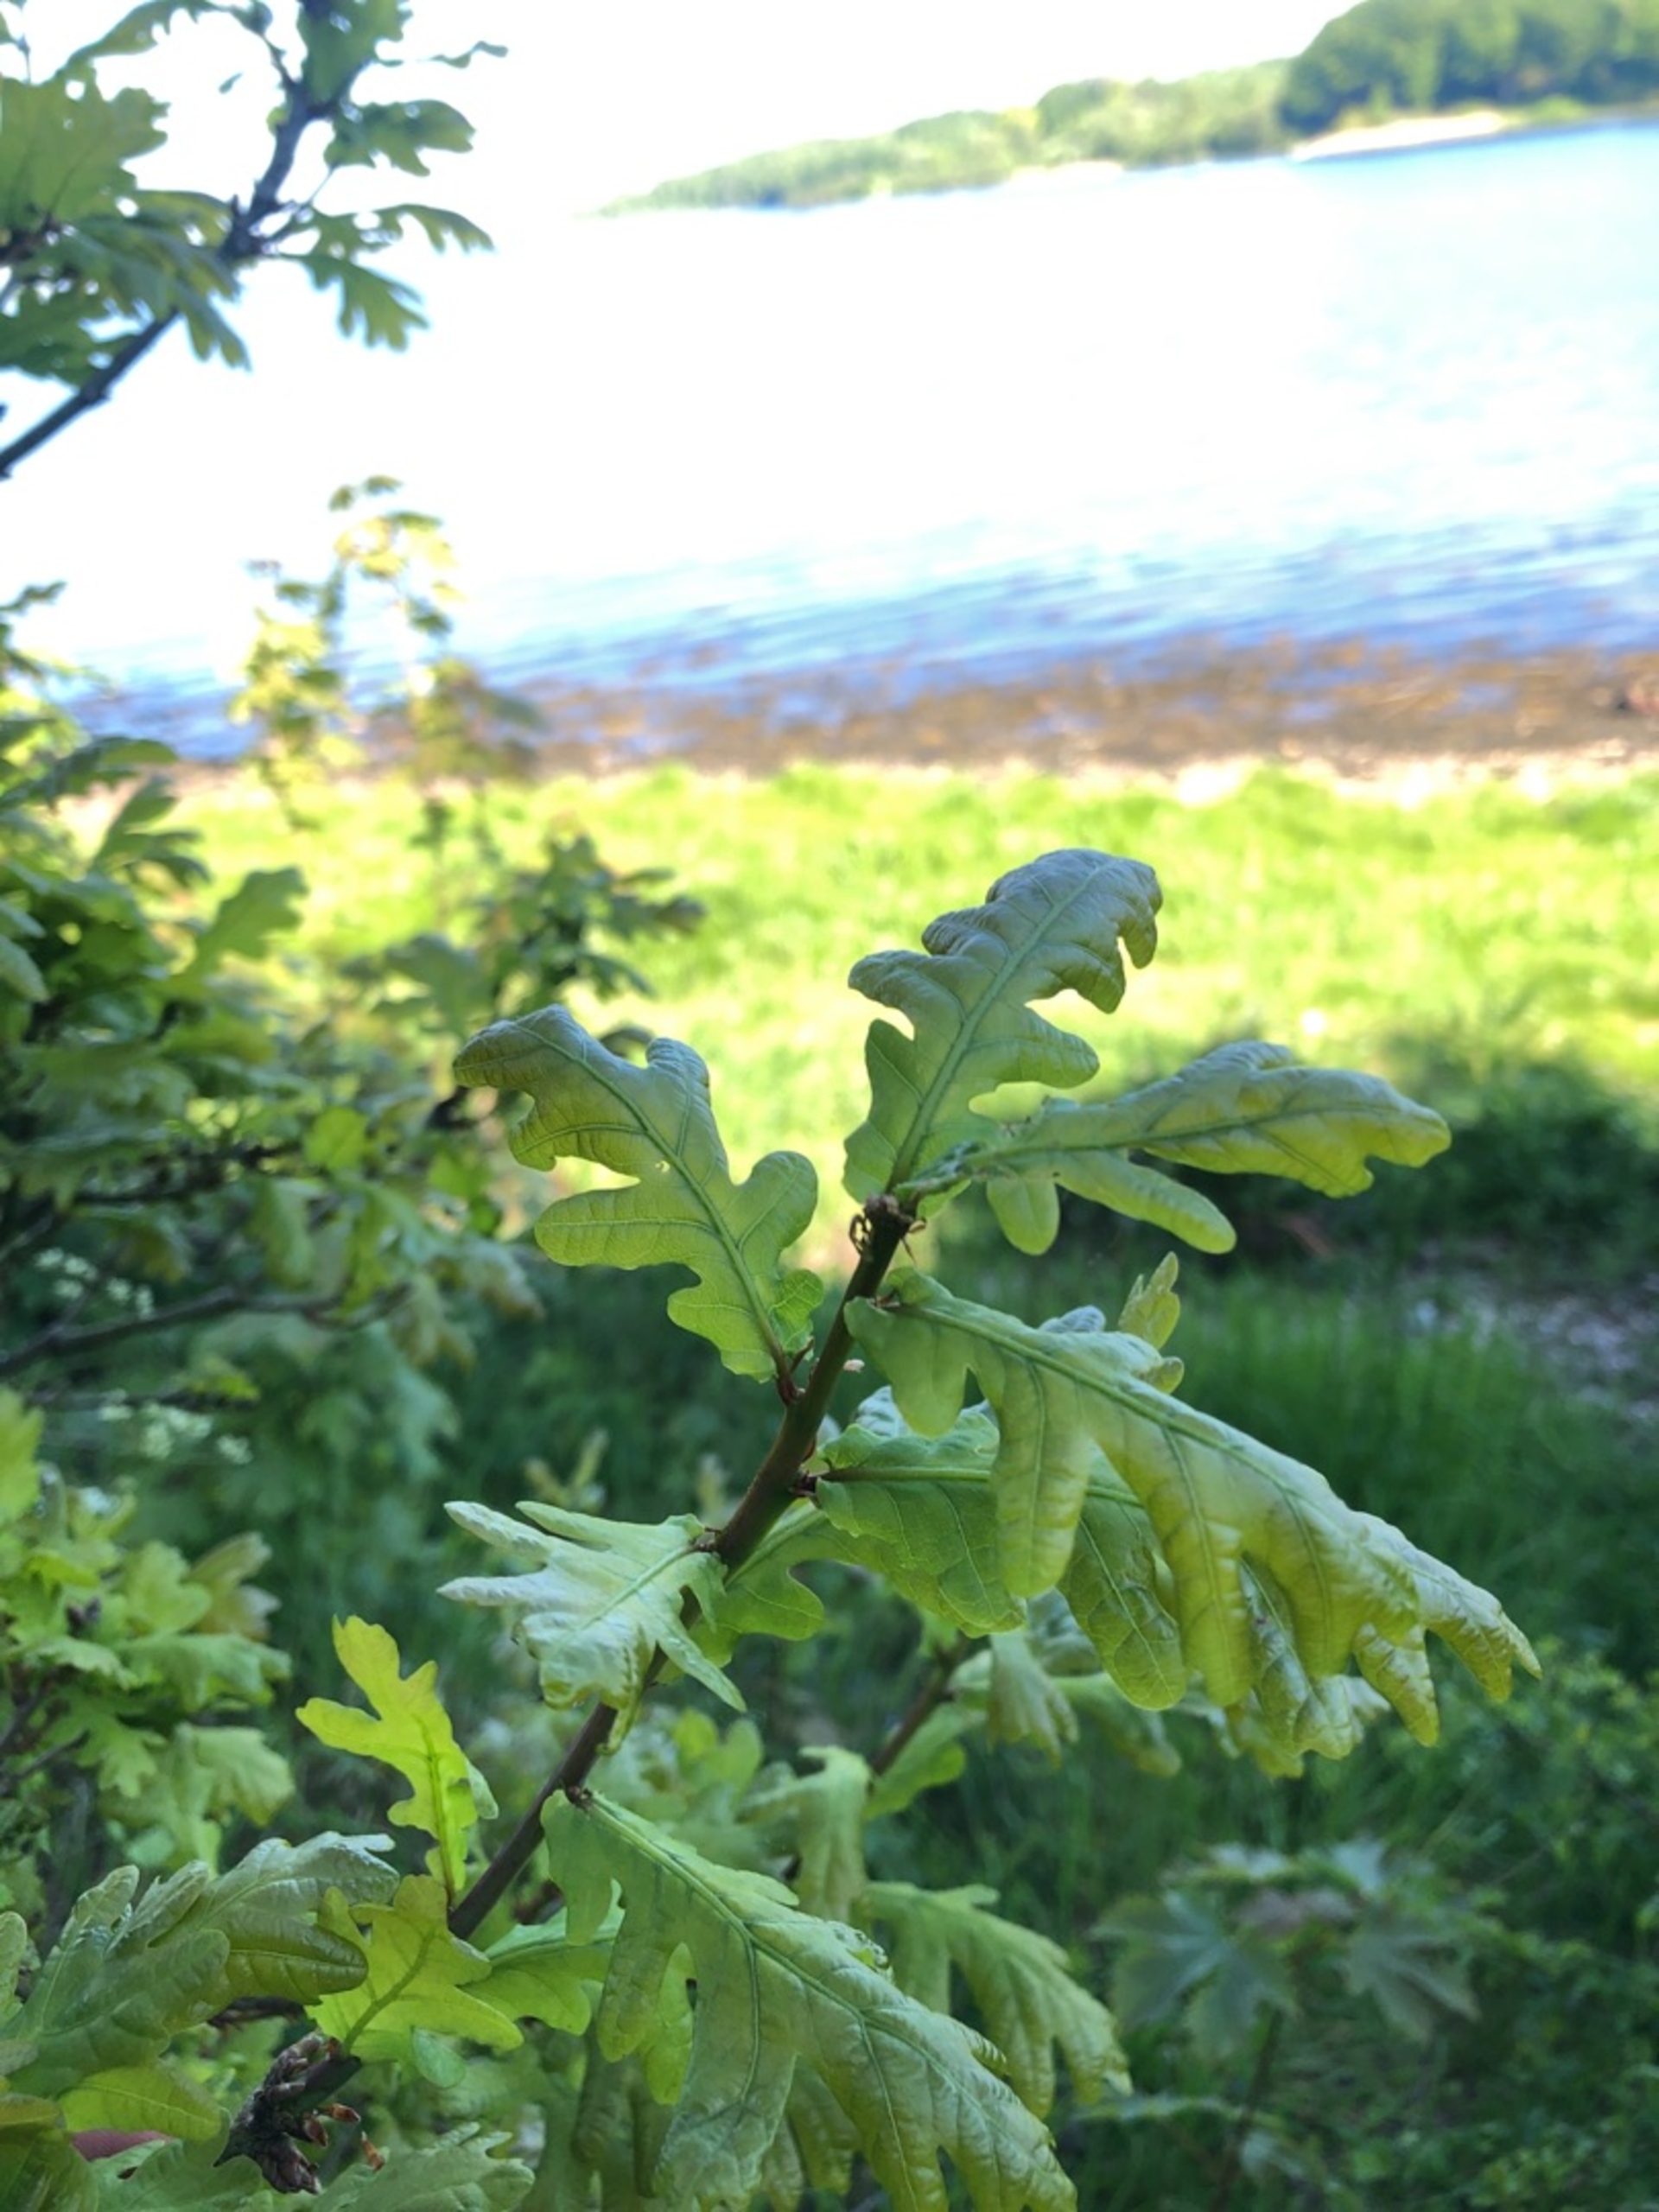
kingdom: Plantae
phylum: Tracheophyta
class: Magnoliopsida
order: Fagales
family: Fagaceae
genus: Quercus
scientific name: Quercus robur
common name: Stilk-eg/almindelig eg
